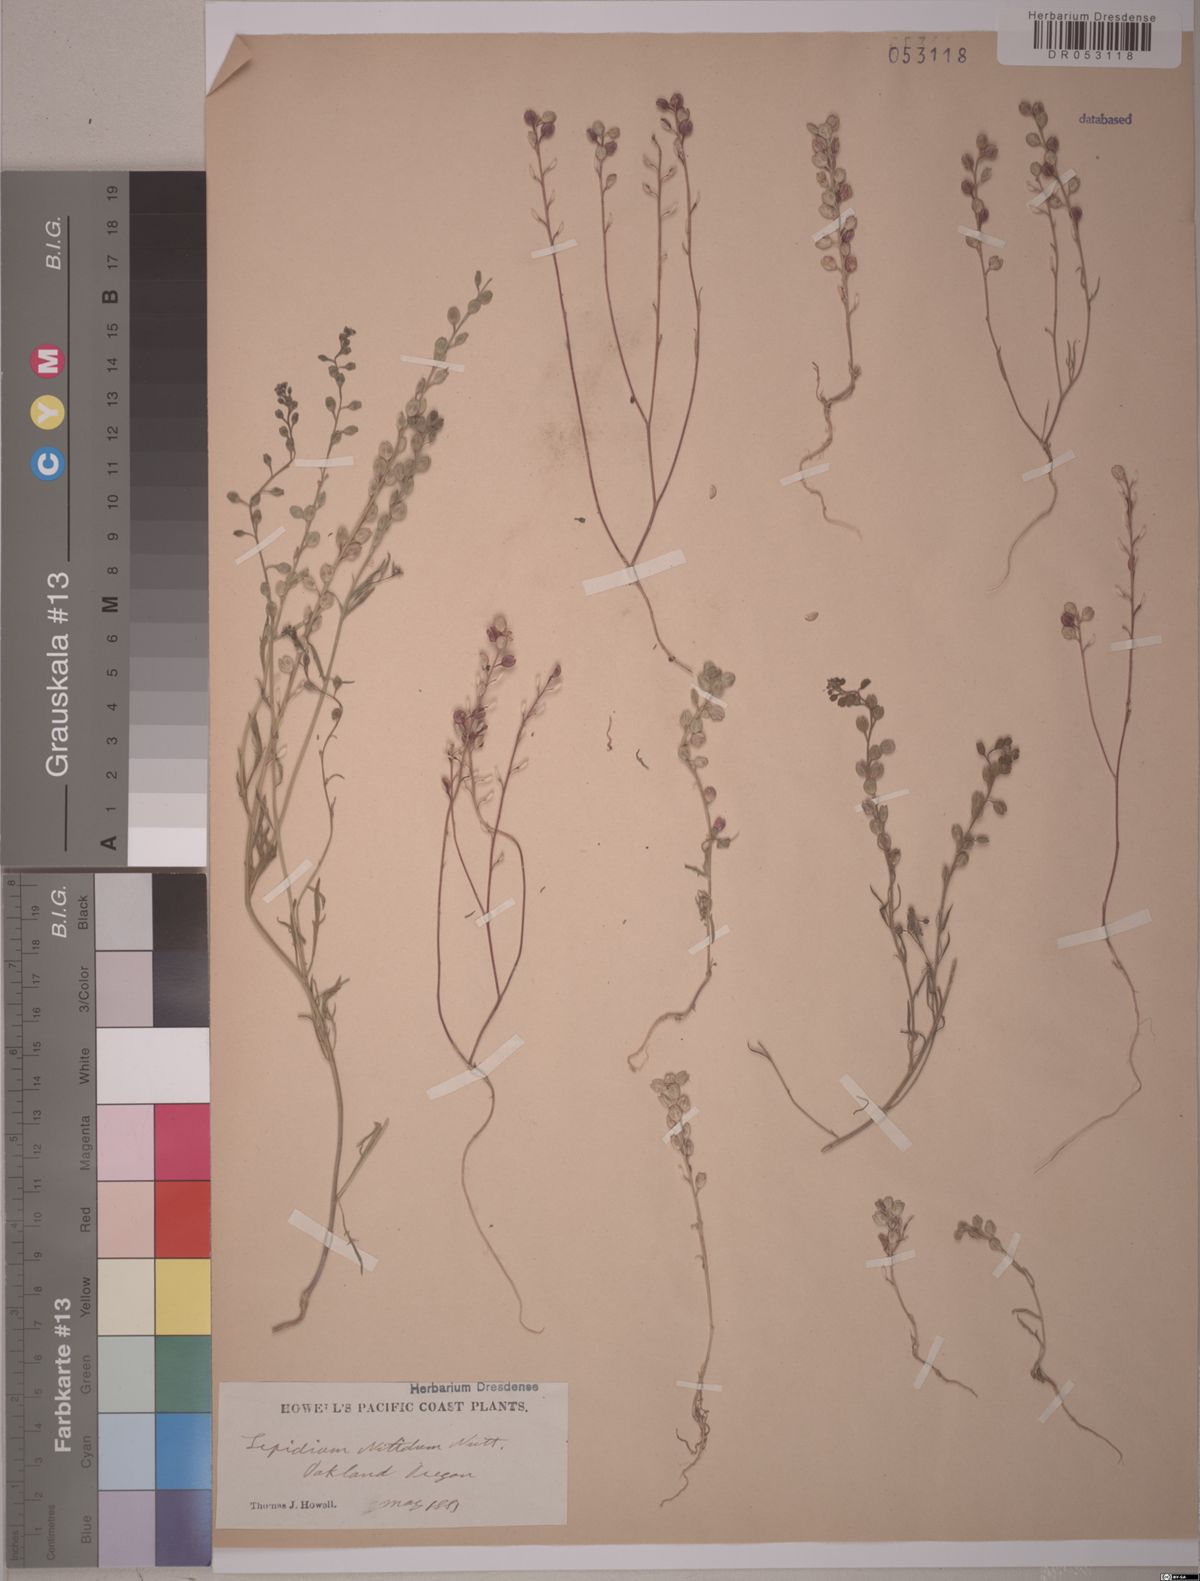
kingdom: Plantae
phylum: Tracheophyta
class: Magnoliopsida
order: Brassicales
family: Brassicaceae
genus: Lepidium
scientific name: Lepidium nitidum
